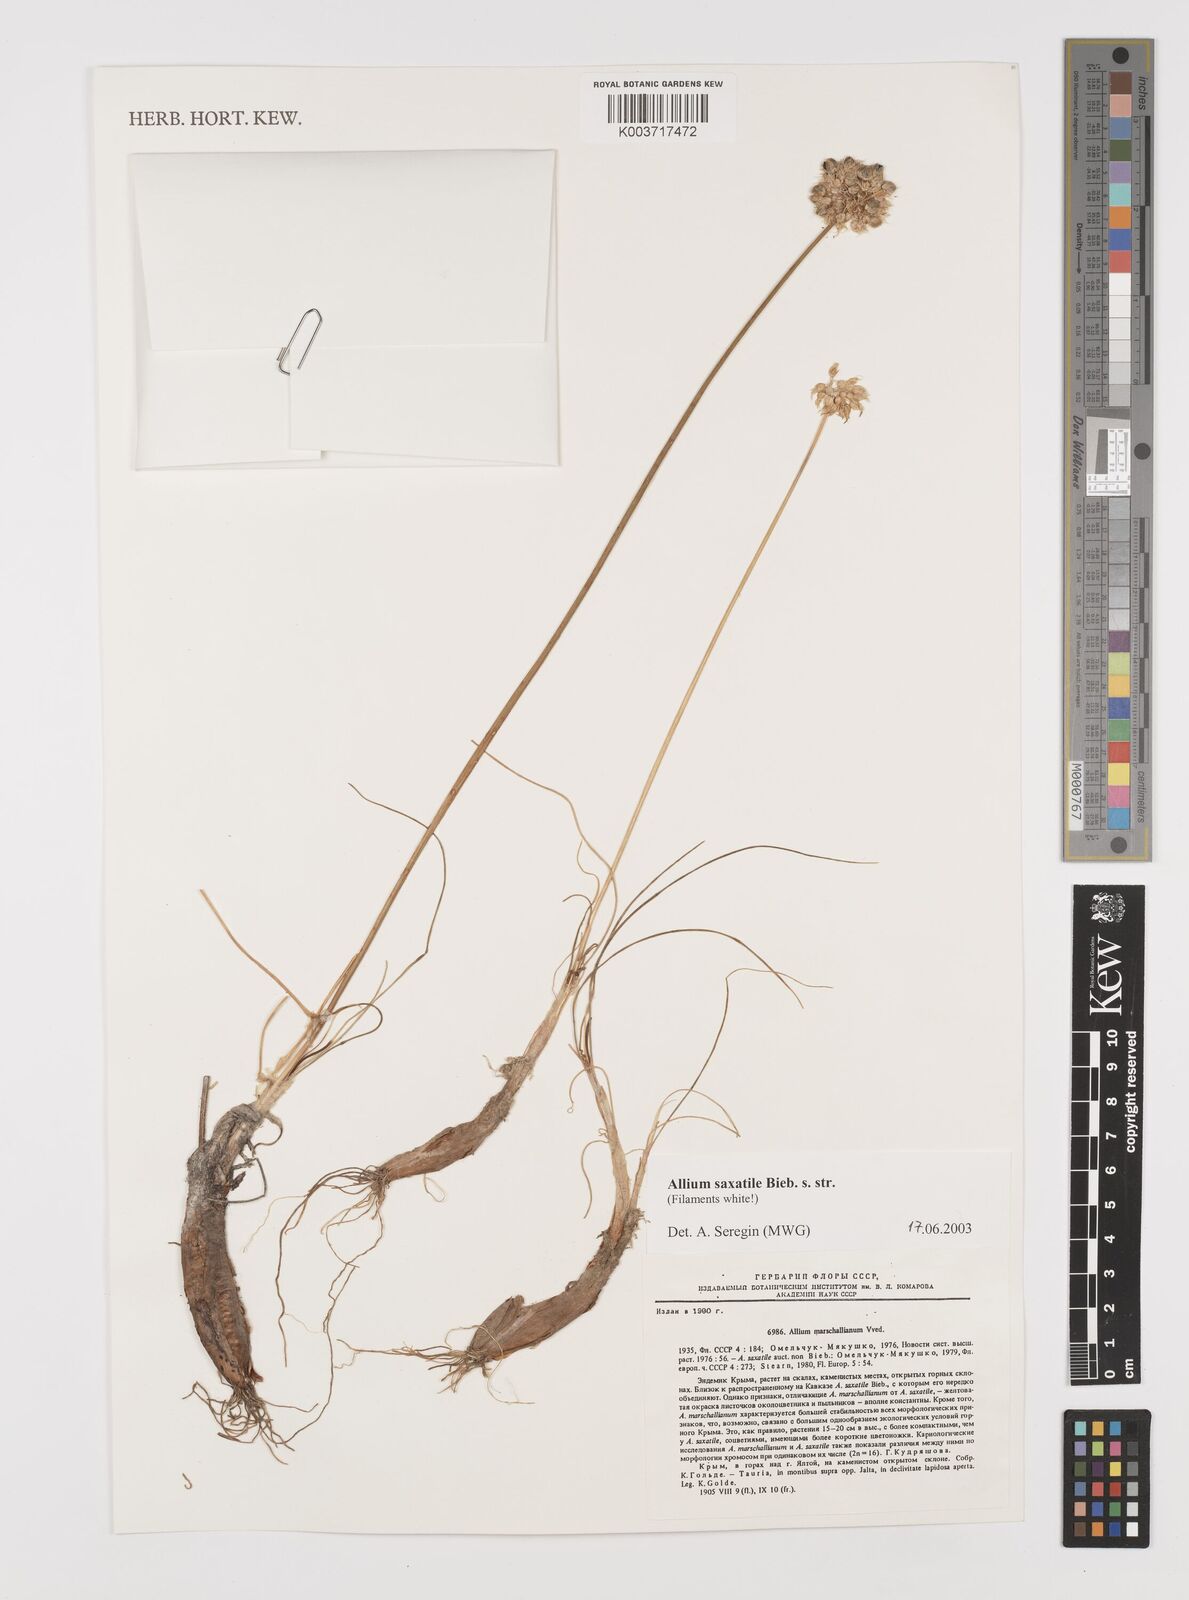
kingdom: Plantae
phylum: Tracheophyta
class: Liliopsida
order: Asparagales
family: Amaryllidaceae
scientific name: Amaryllidaceae
